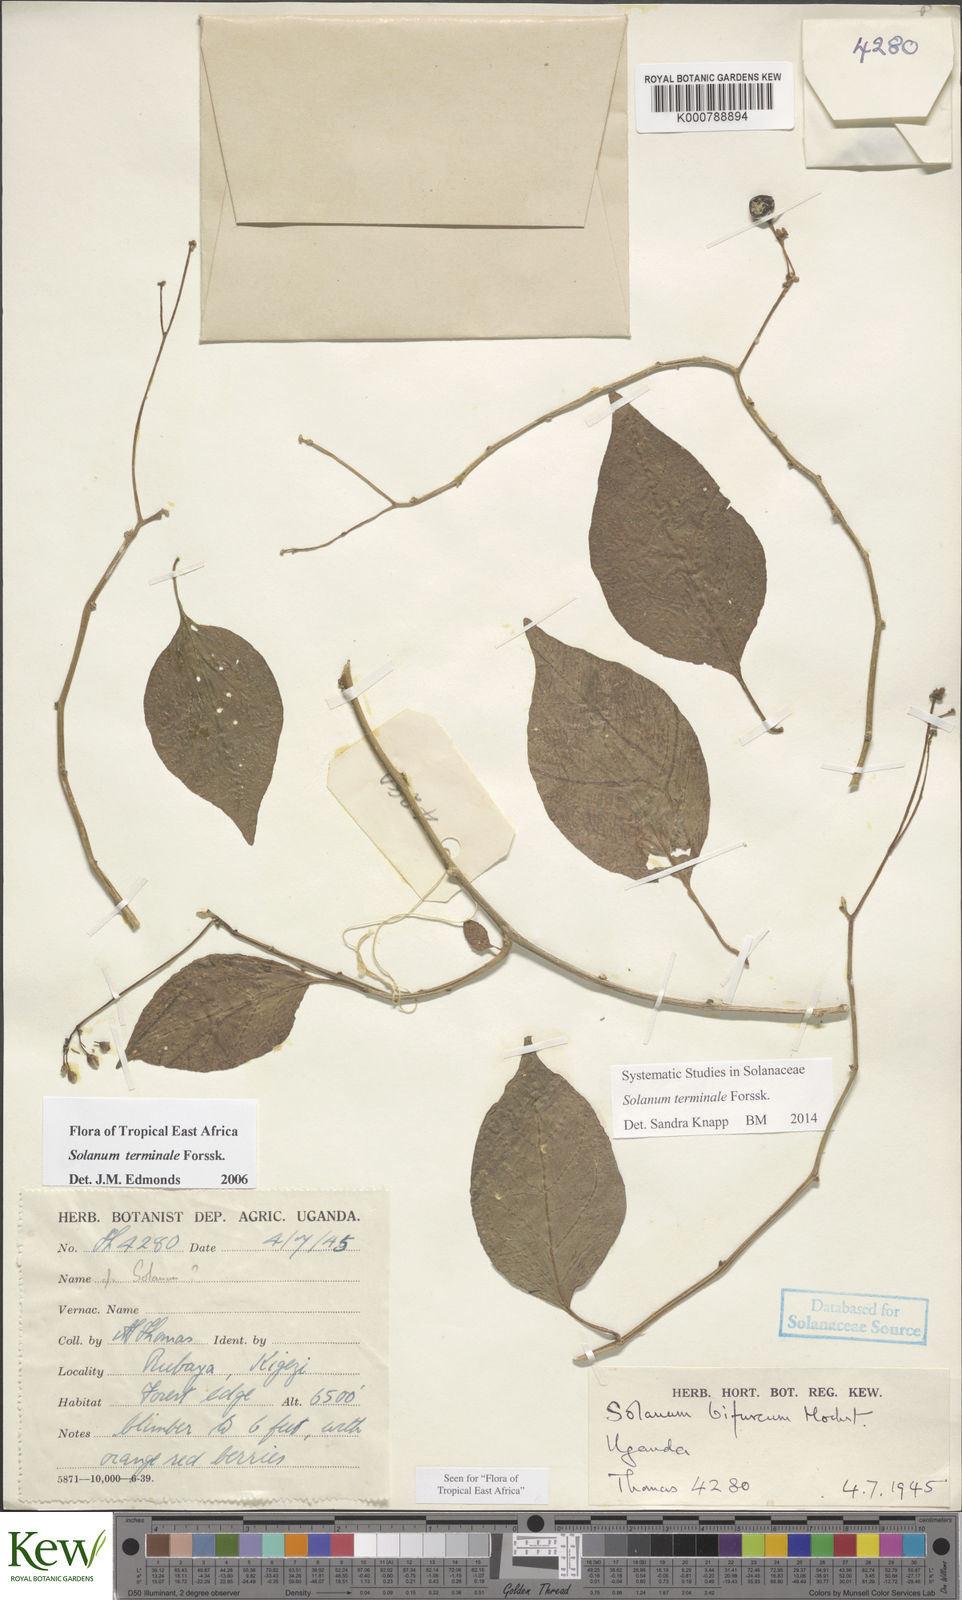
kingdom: Plantae
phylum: Tracheophyta
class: Magnoliopsida
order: Solanales
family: Solanaceae
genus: Solanum
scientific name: Solanum terminale
